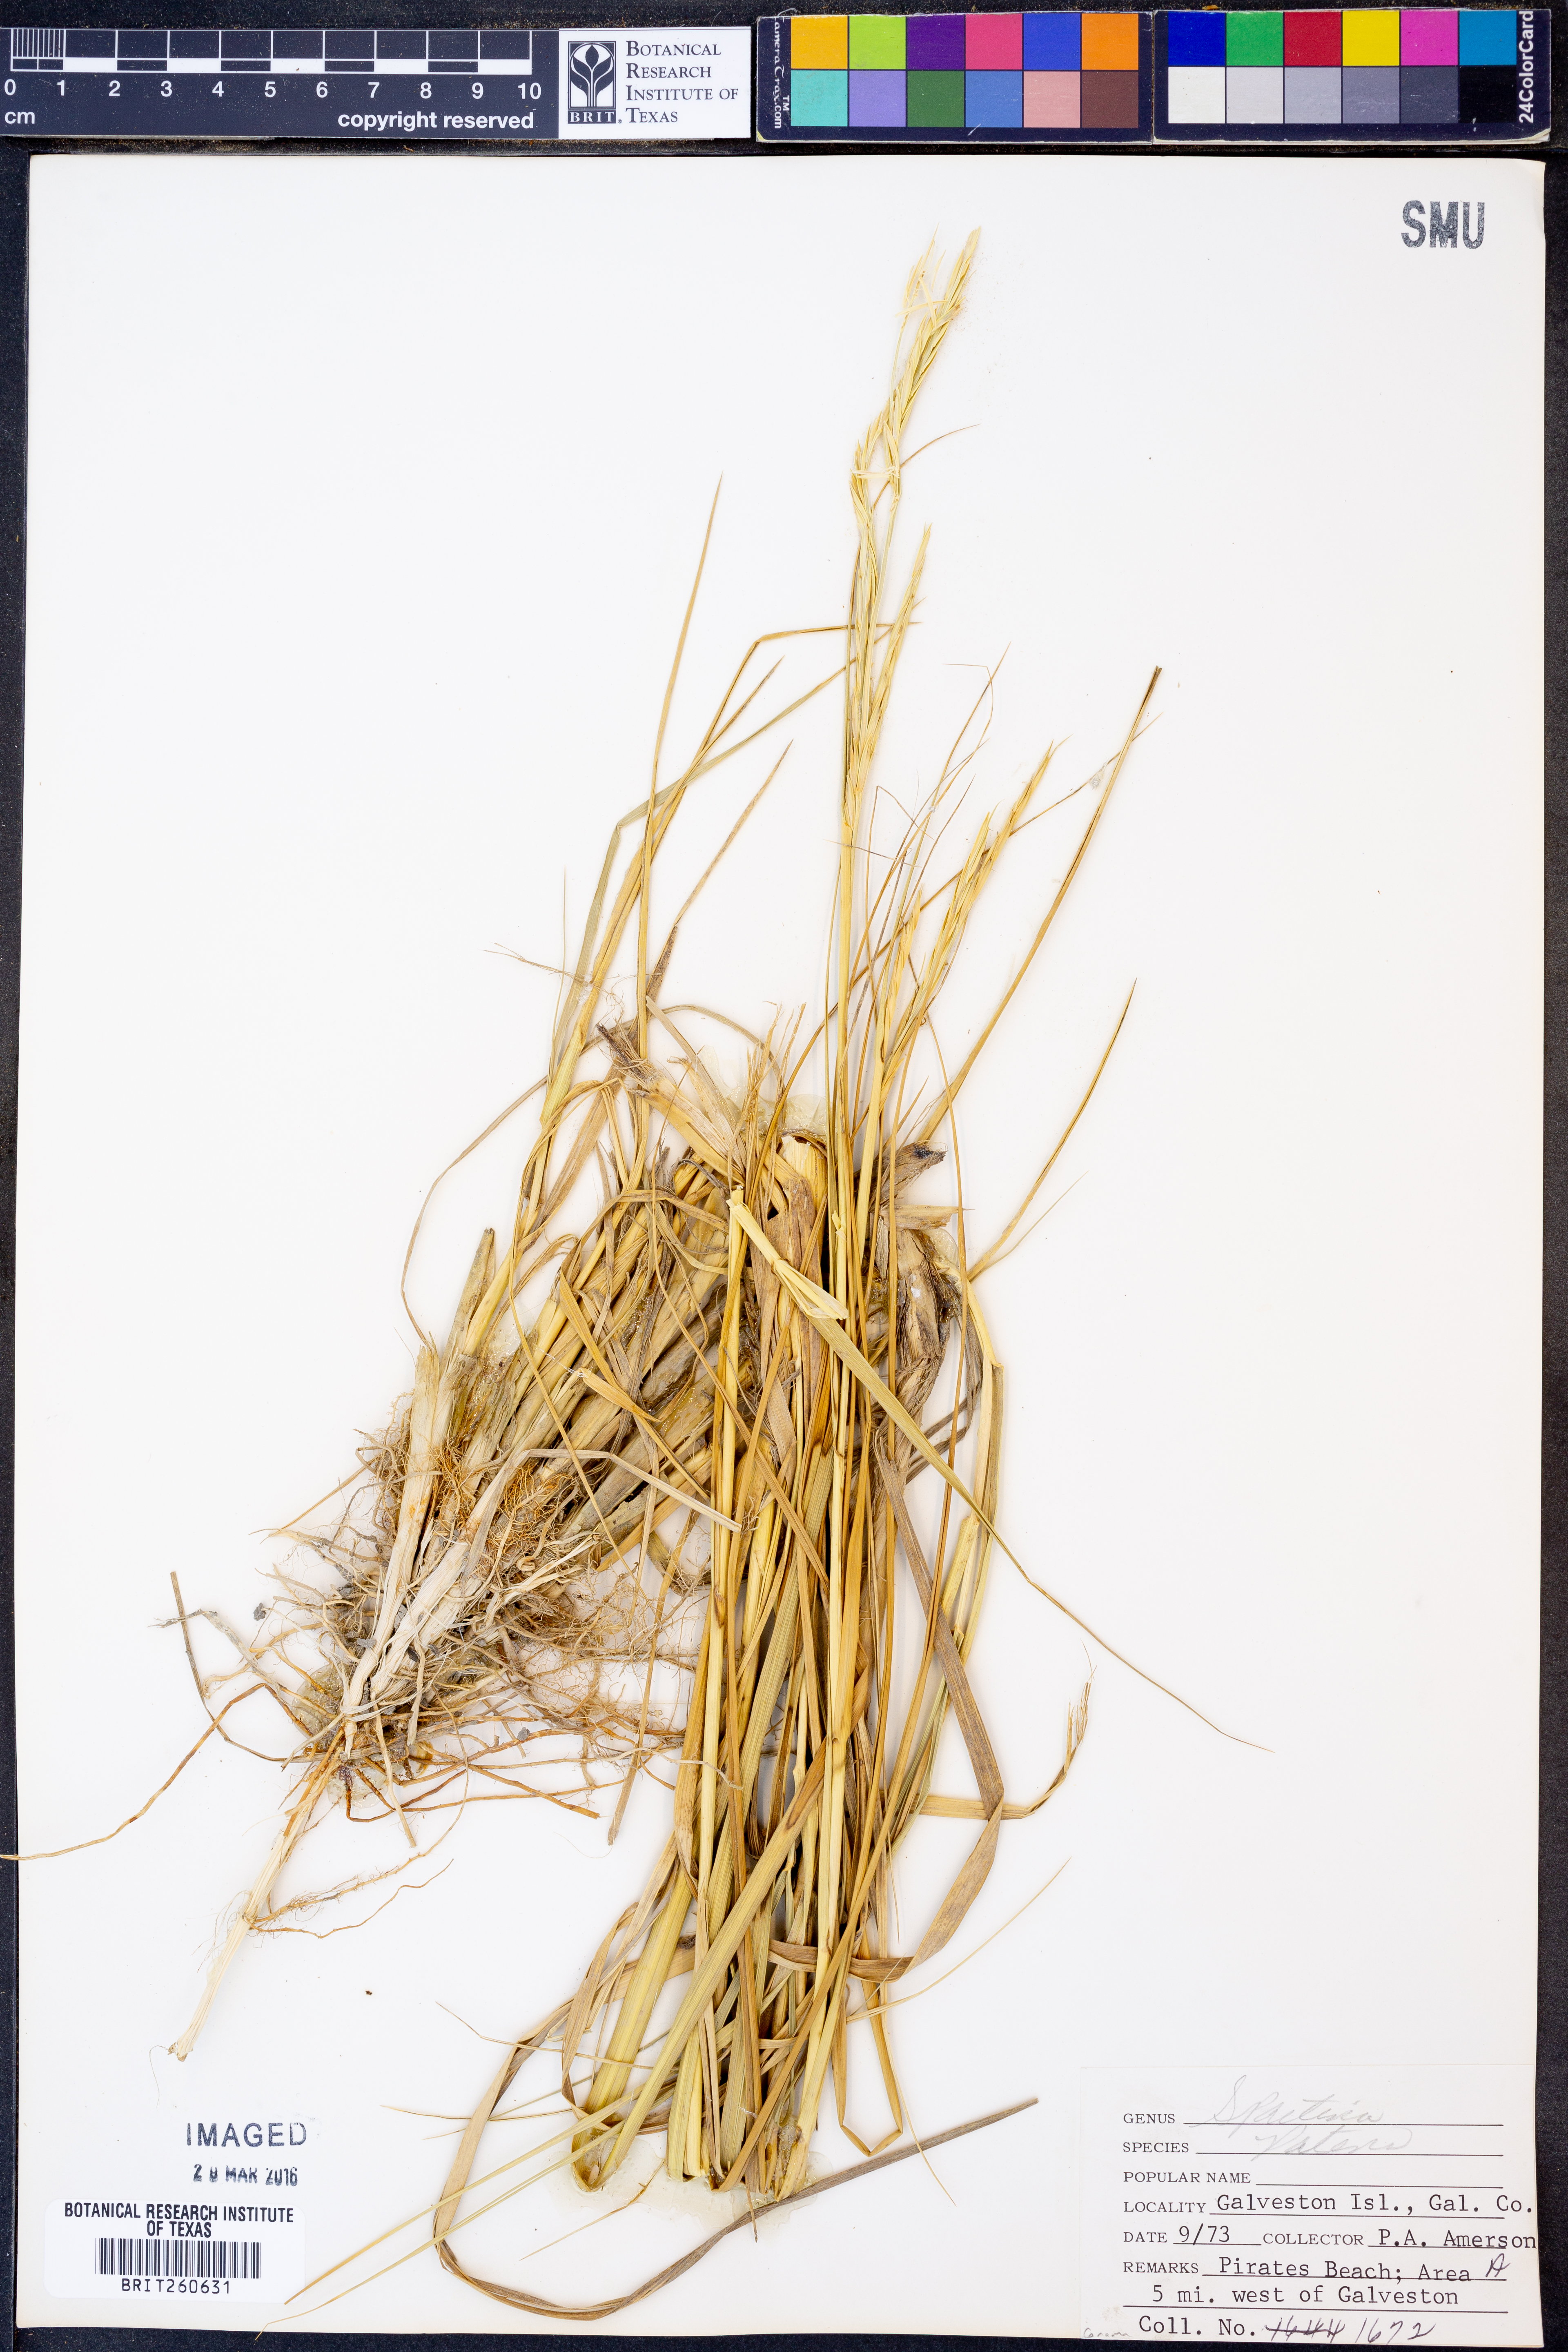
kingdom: Plantae
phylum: Tracheophyta
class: Liliopsida
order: Poales
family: Poaceae
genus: Sporobolus
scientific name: Sporobolus pumilus
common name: Highwater grass
